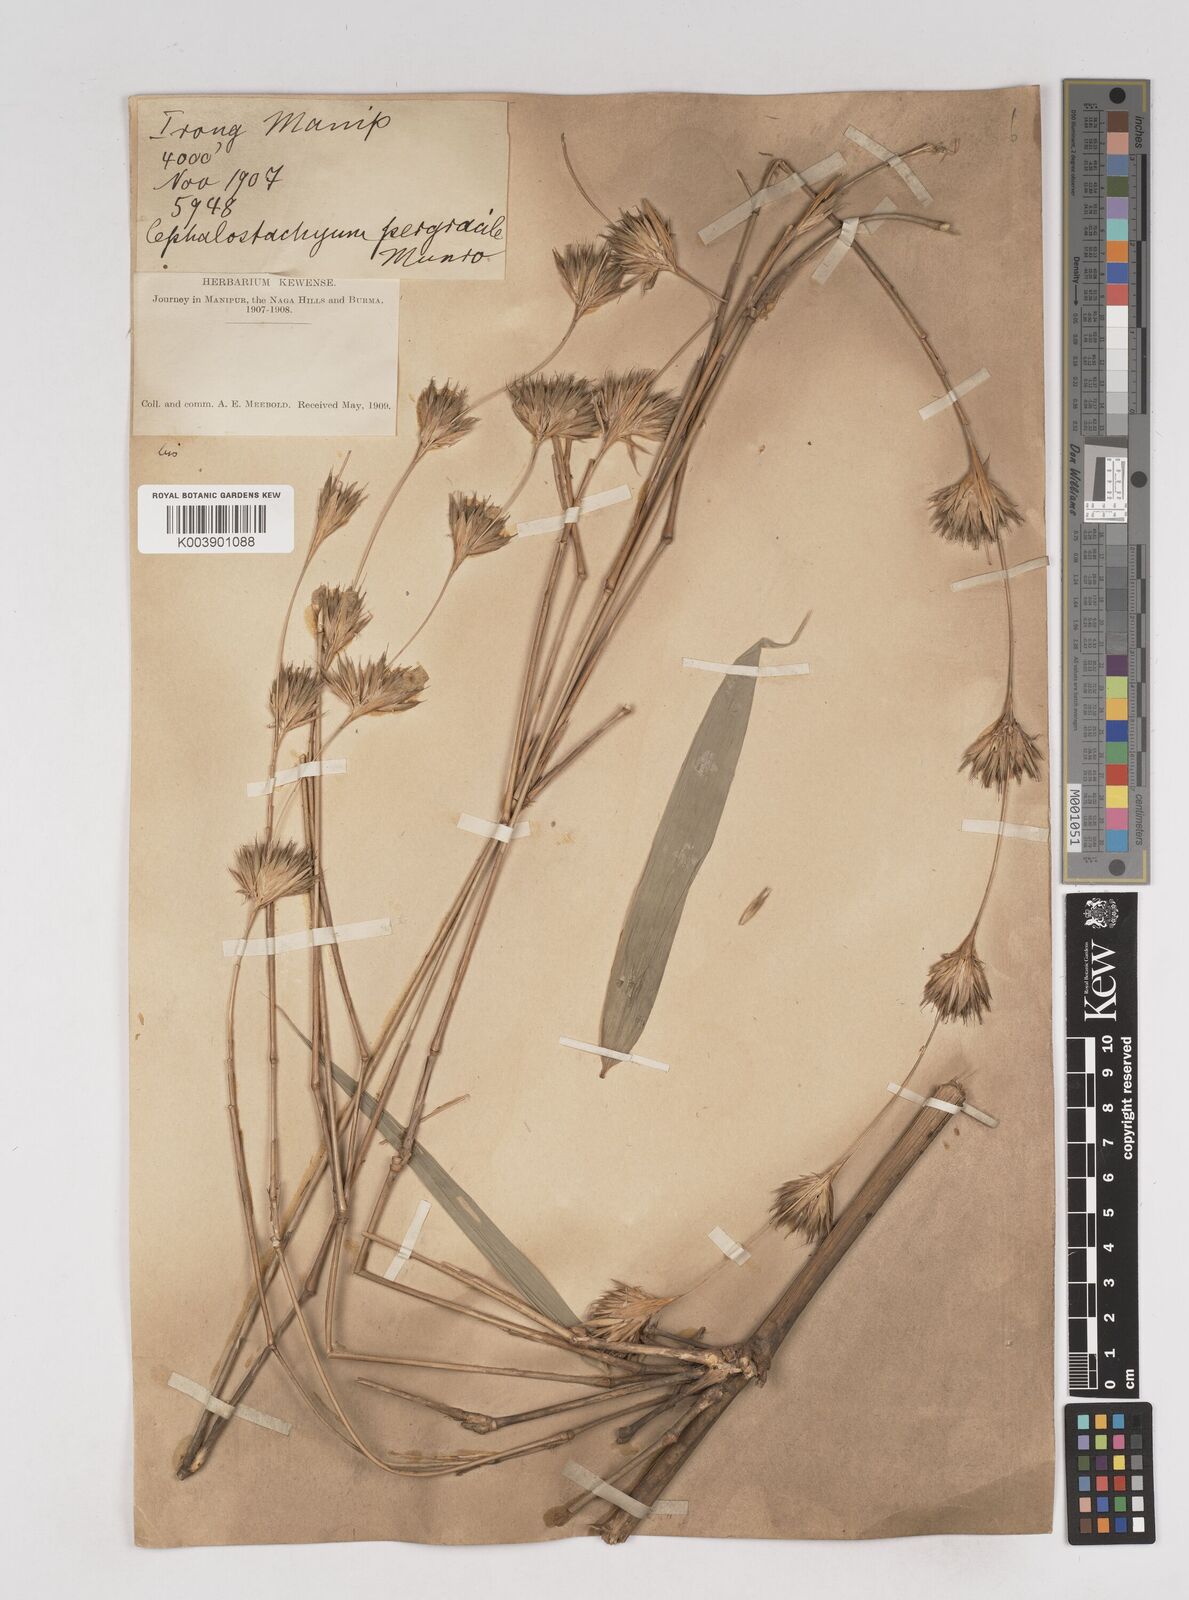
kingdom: Plantae
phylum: Tracheophyta
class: Liliopsida
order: Poales
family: Poaceae
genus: Schizostachyum
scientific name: Schizostachyum pergracile
